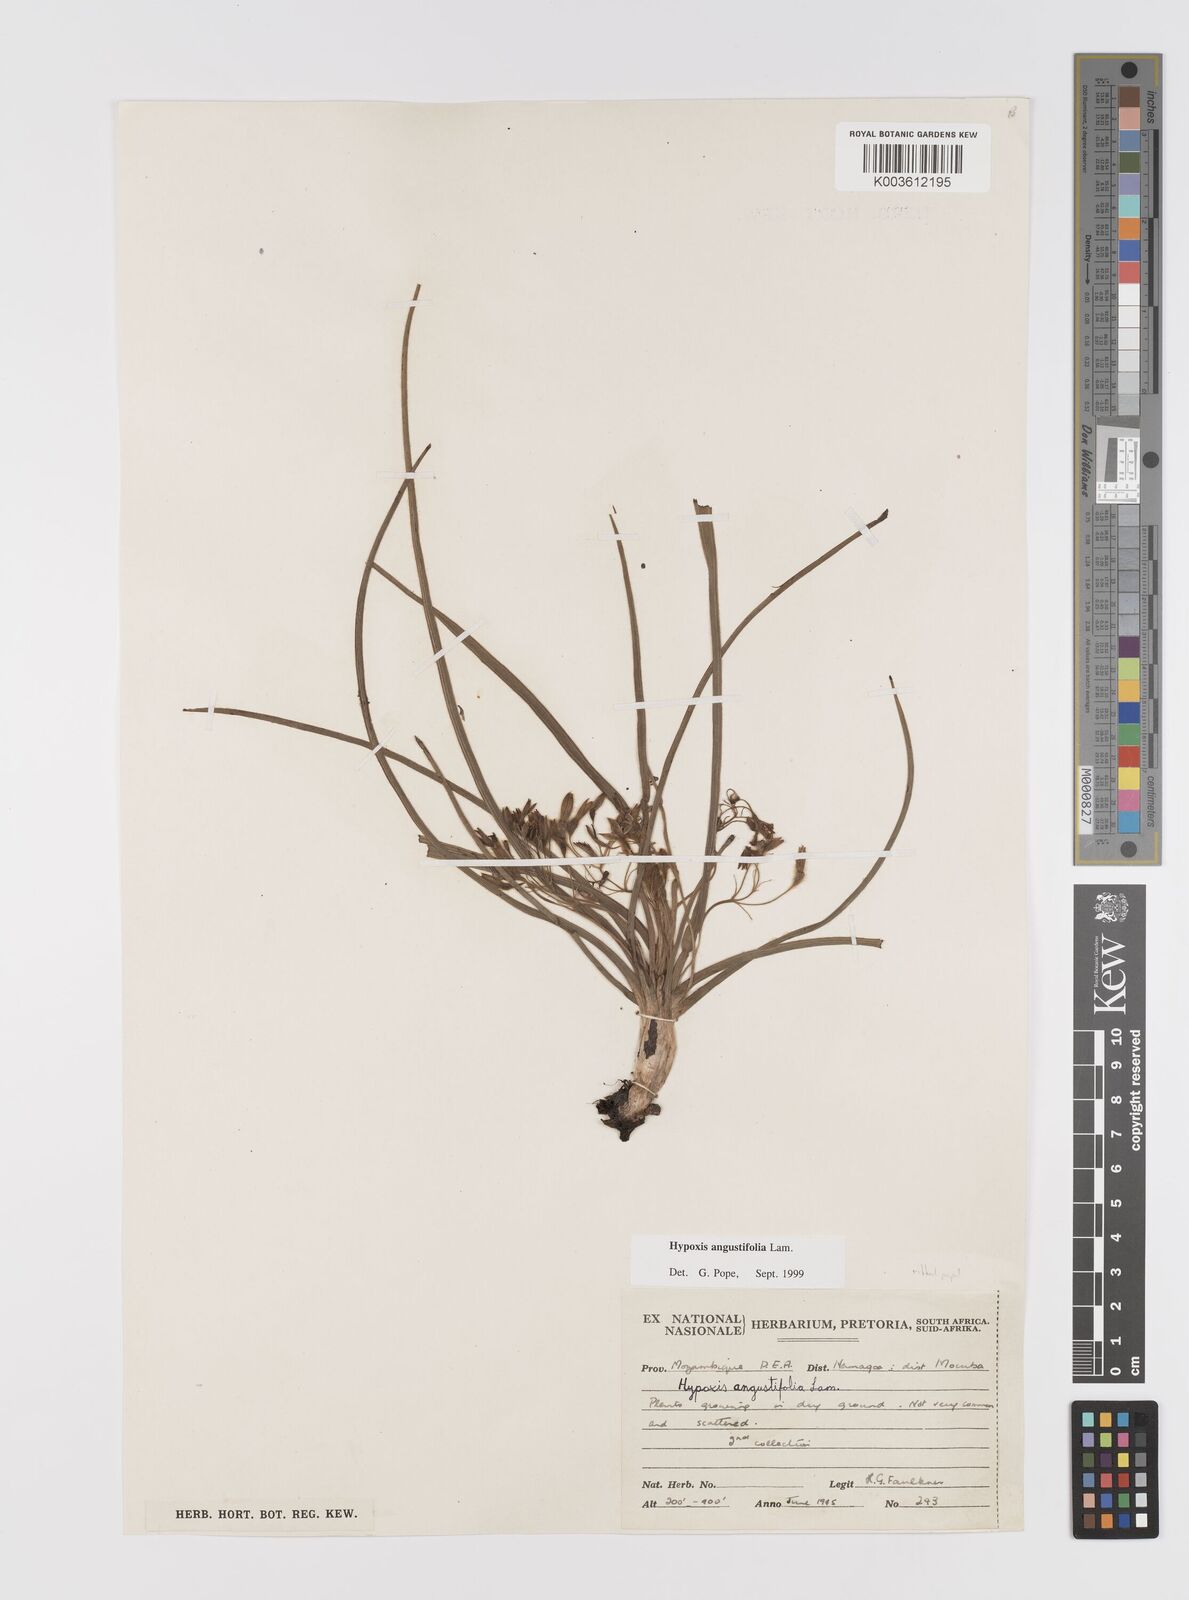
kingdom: Plantae
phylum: Tracheophyta
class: Liliopsida
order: Asparagales
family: Hypoxidaceae
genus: Hypoxis
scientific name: Hypoxis angustifolia
